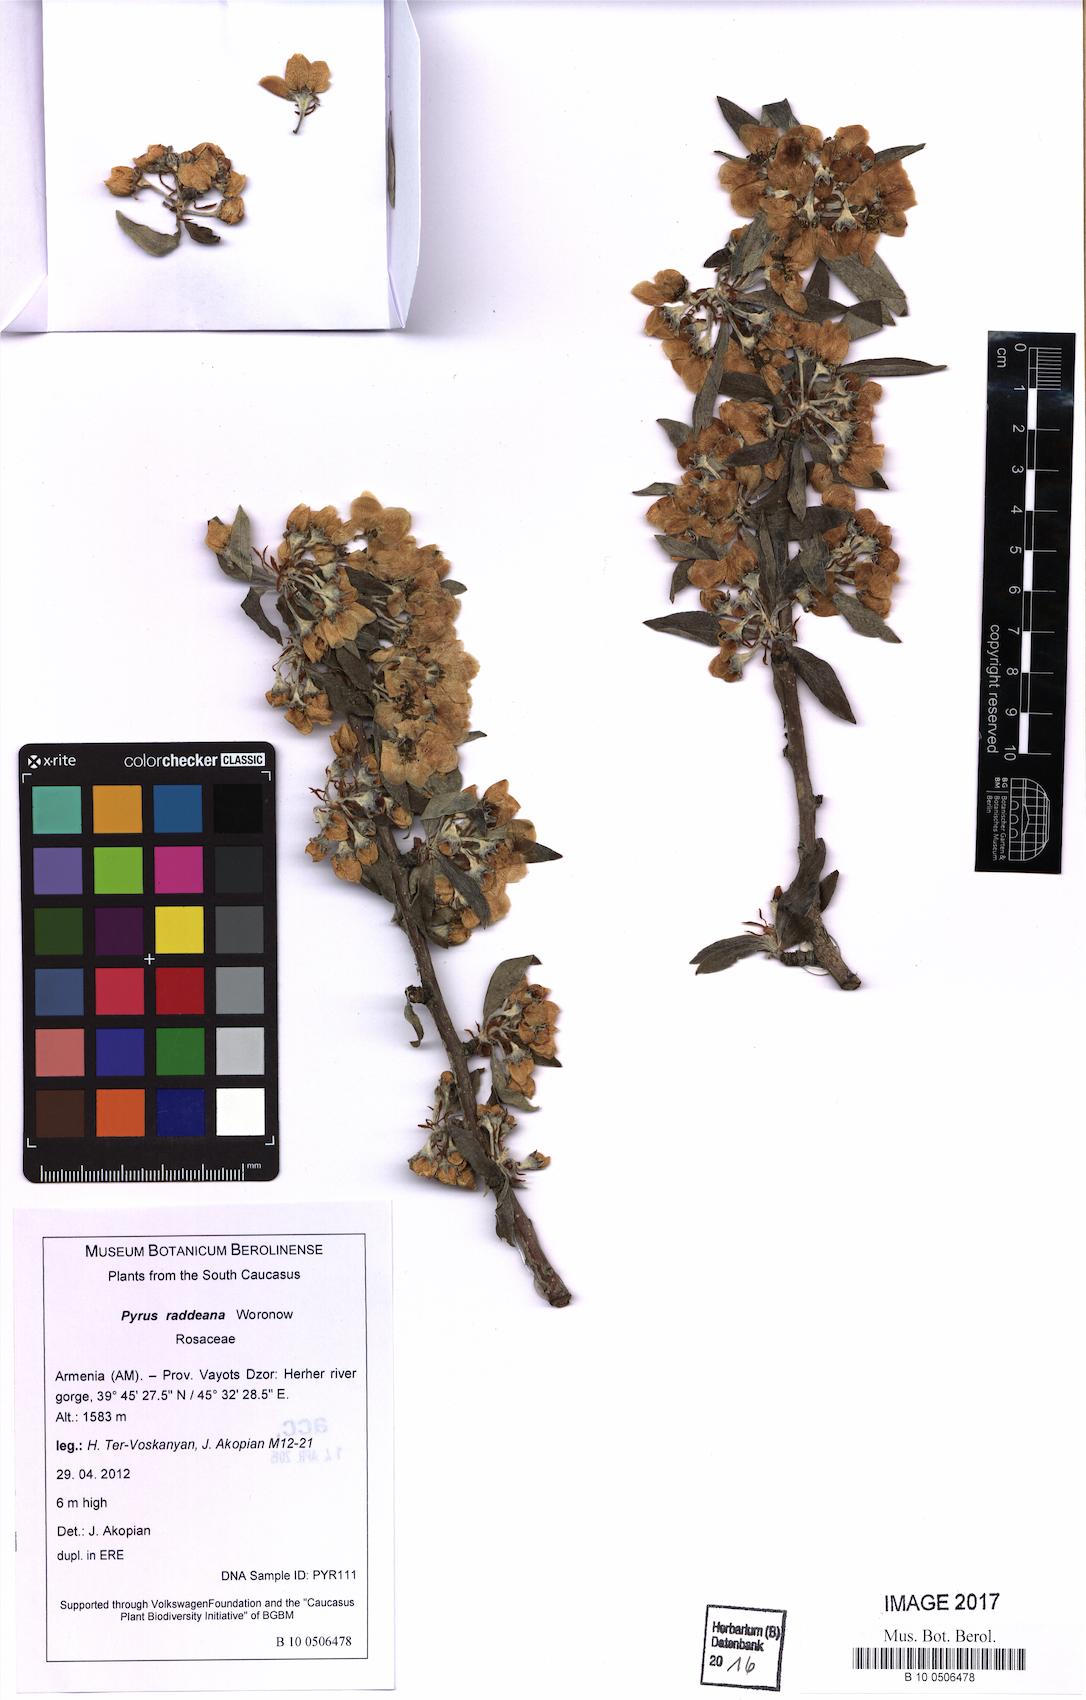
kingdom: Plantae
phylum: Tracheophyta
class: Magnoliopsida
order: Rosales
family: Rosaceae
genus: Pyrus
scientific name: Pyrus raddeana
